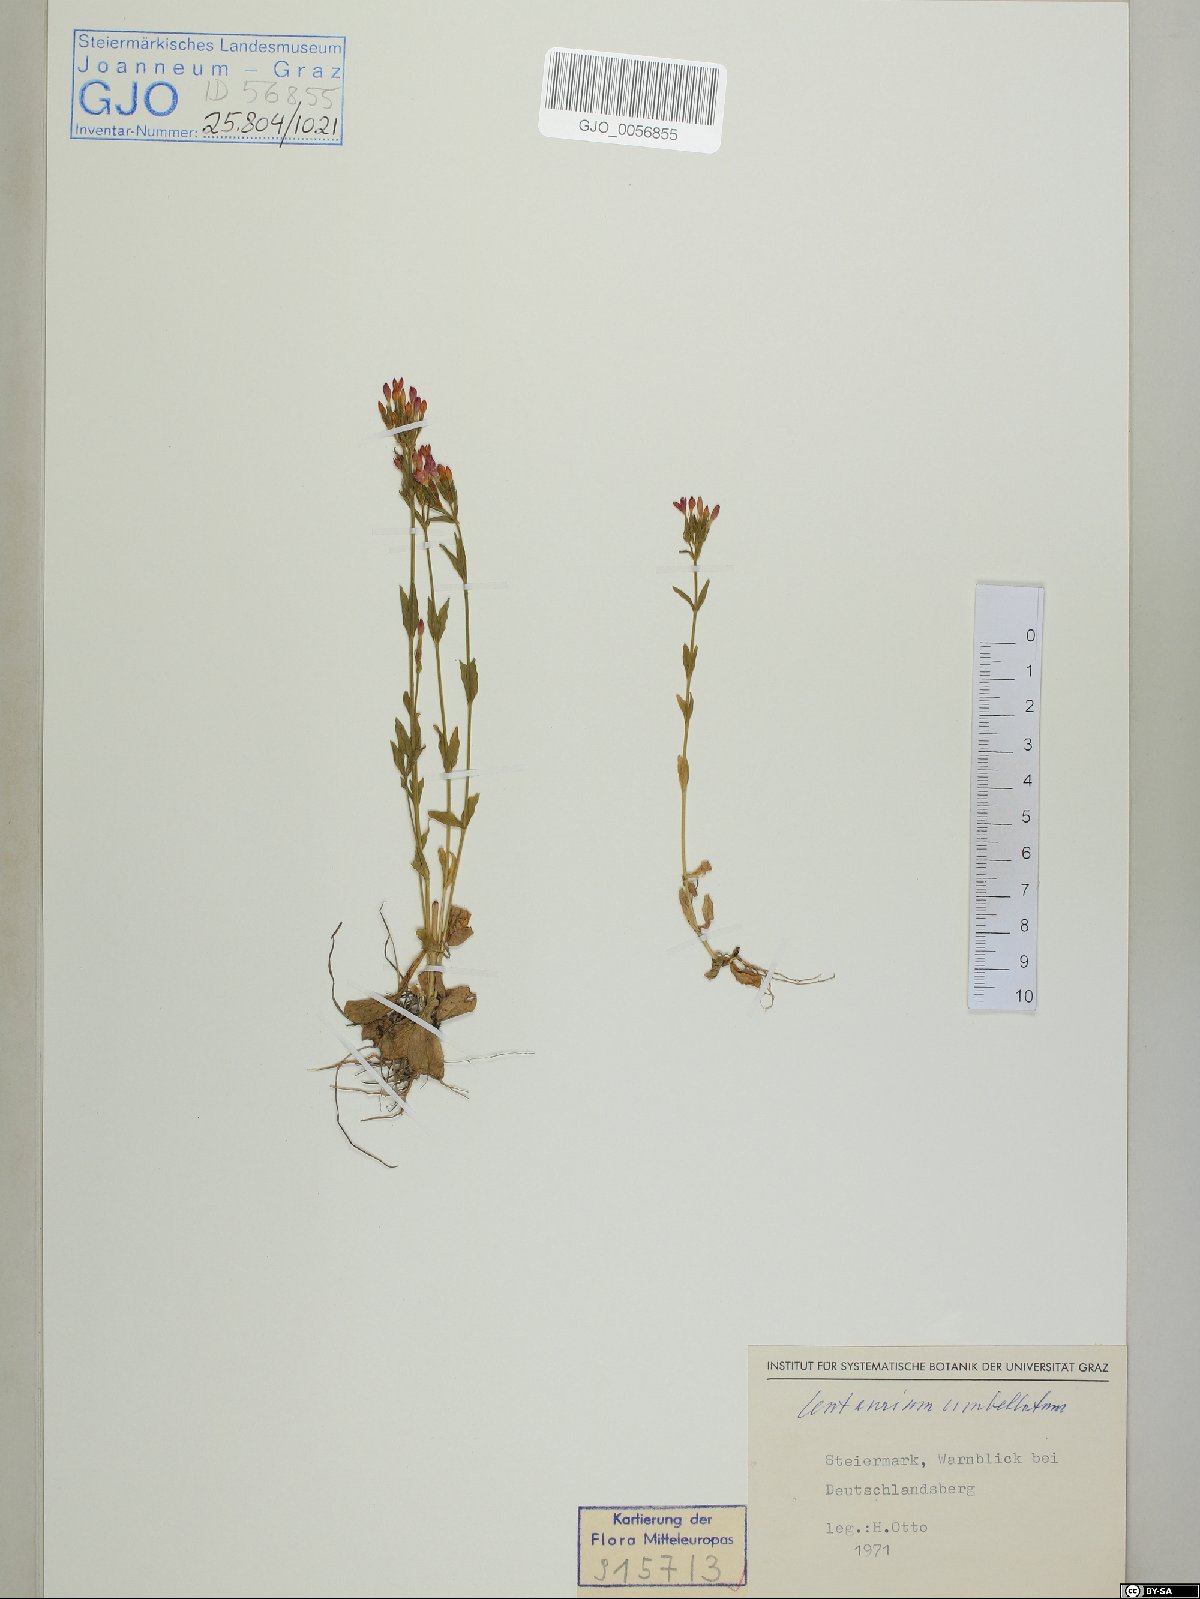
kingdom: Plantae
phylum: Tracheophyta
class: Magnoliopsida
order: Gentianales
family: Gentianaceae
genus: Centaurium
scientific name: Centaurium erythraea
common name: Common centaury
